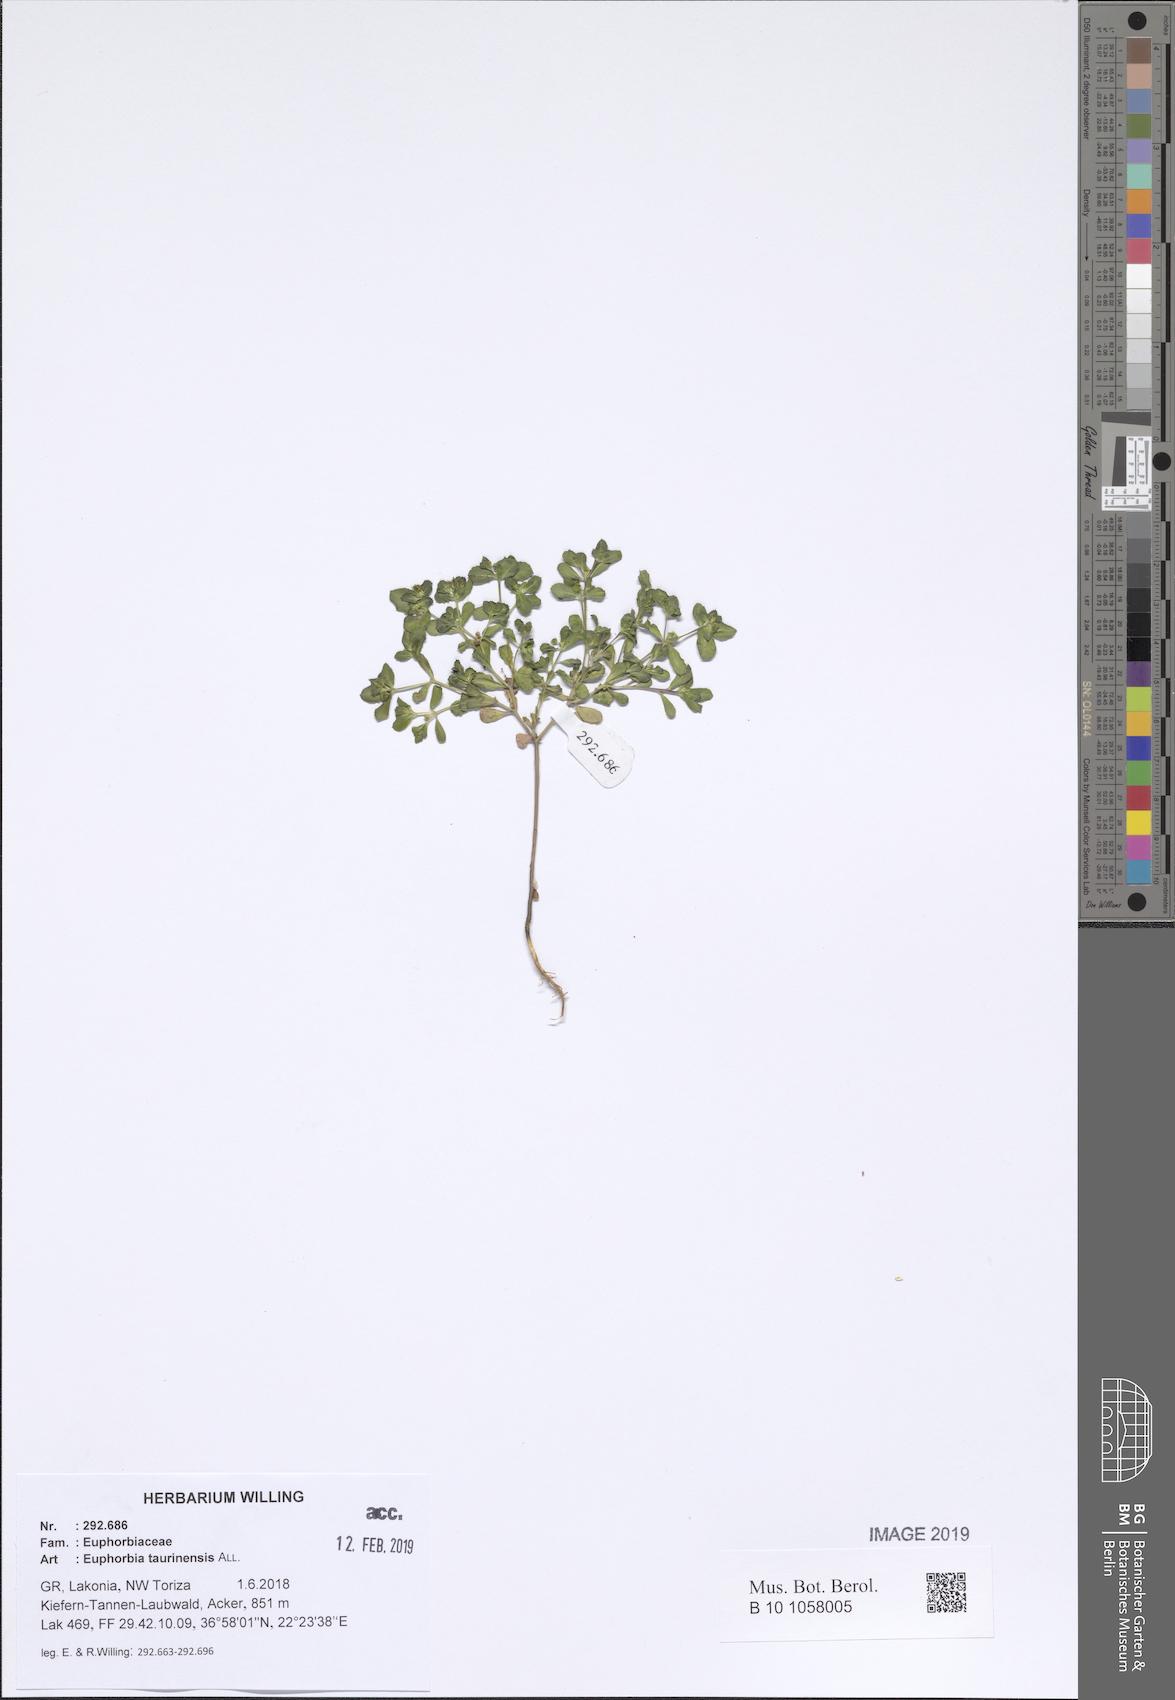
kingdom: Plantae
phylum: Tracheophyta
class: Magnoliopsida
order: Malpighiales
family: Euphorbiaceae
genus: Euphorbia
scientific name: Euphorbia taurinensis
